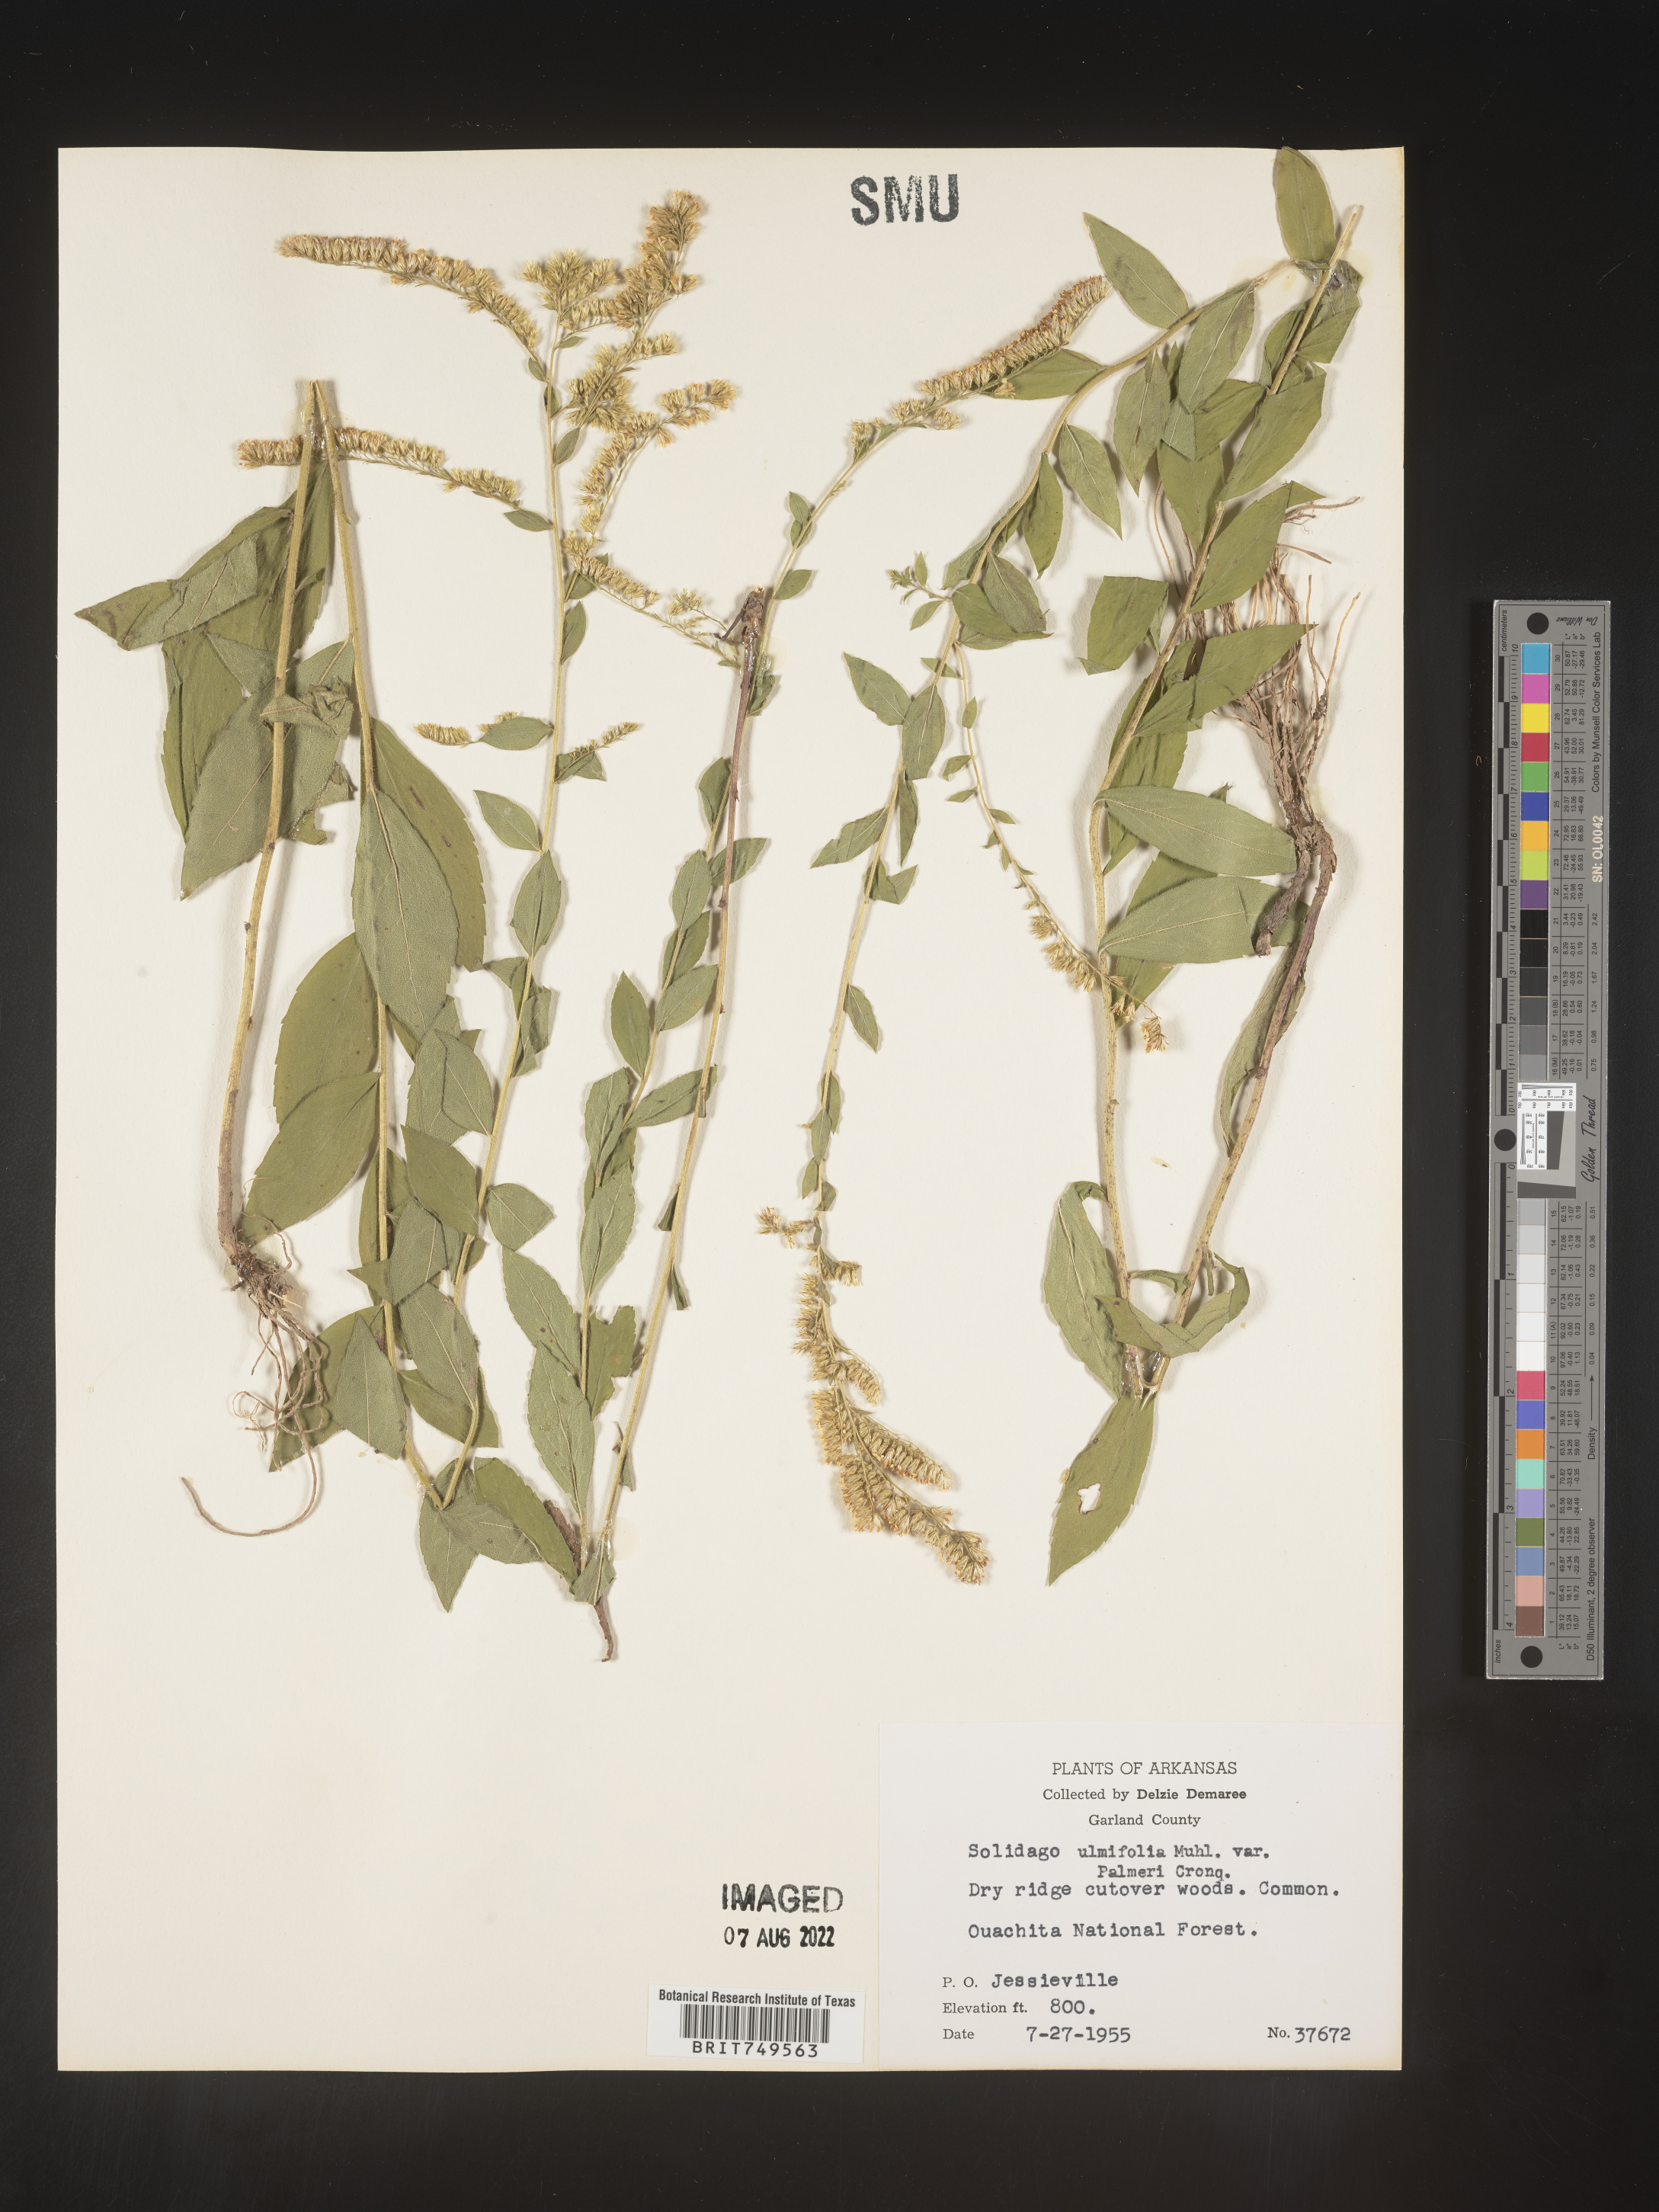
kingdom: Plantae
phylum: Tracheophyta
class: Magnoliopsida
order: Asterales
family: Asteraceae
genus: Solidago
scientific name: Solidago ulmifolia
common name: Elm-leaf goldenrod
